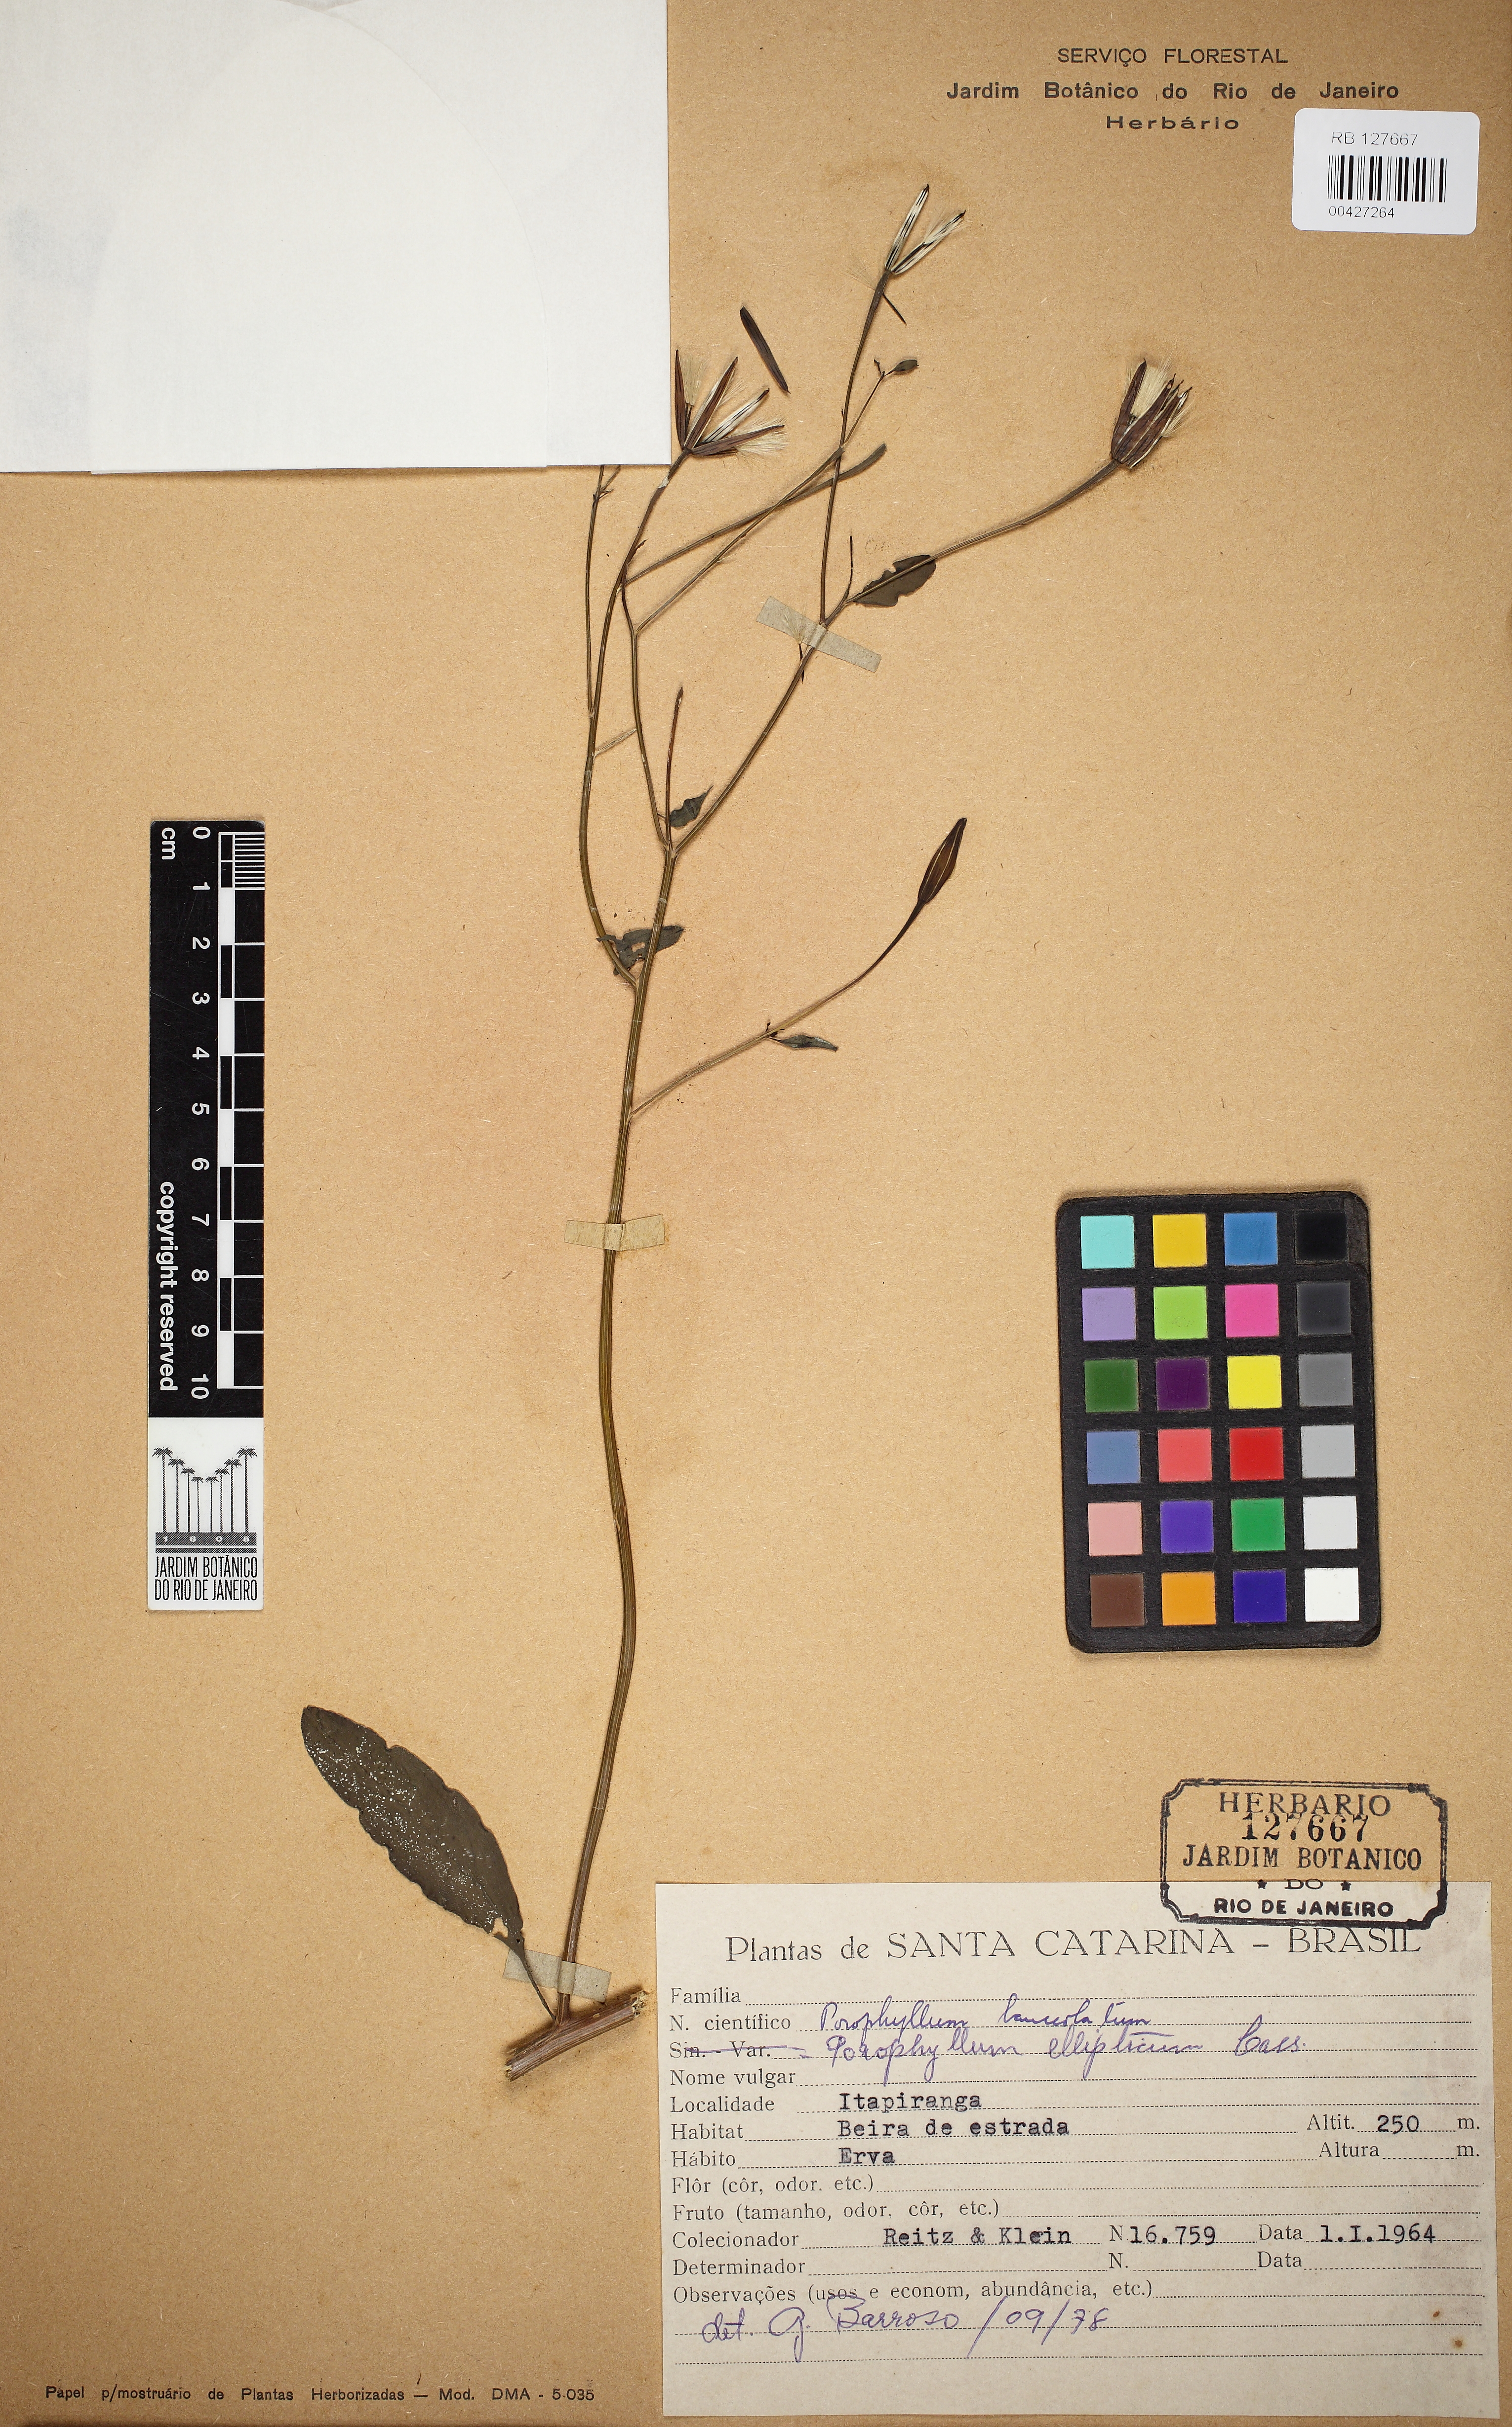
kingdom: Plantae
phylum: Tracheophyta
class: Magnoliopsida
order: Asterales
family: Asteraceae
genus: Porophyllum
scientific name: Porophyllum ruderale
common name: Yerba porosa
